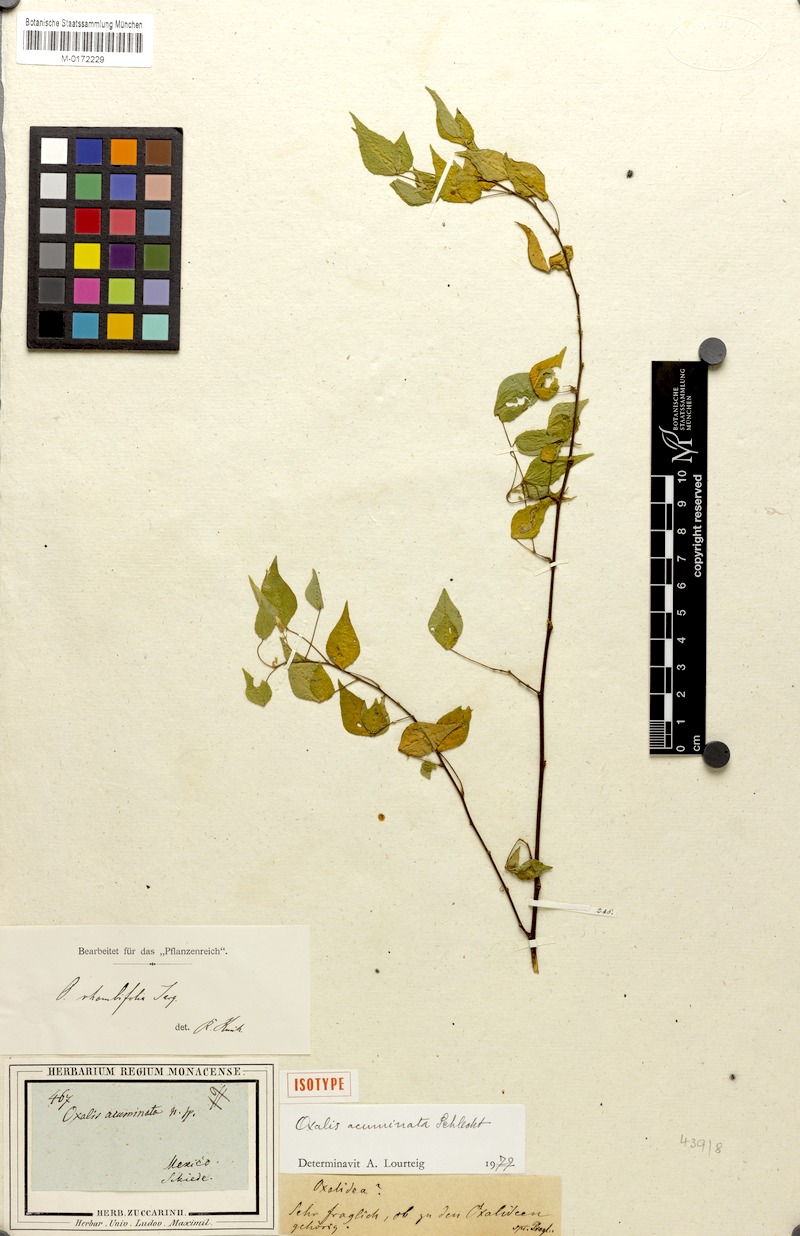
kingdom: Plantae
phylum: Tracheophyta
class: Magnoliopsida
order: Oxalidales
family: Oxalidaceae
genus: Oxalis
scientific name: Oxalis rhombifolia
